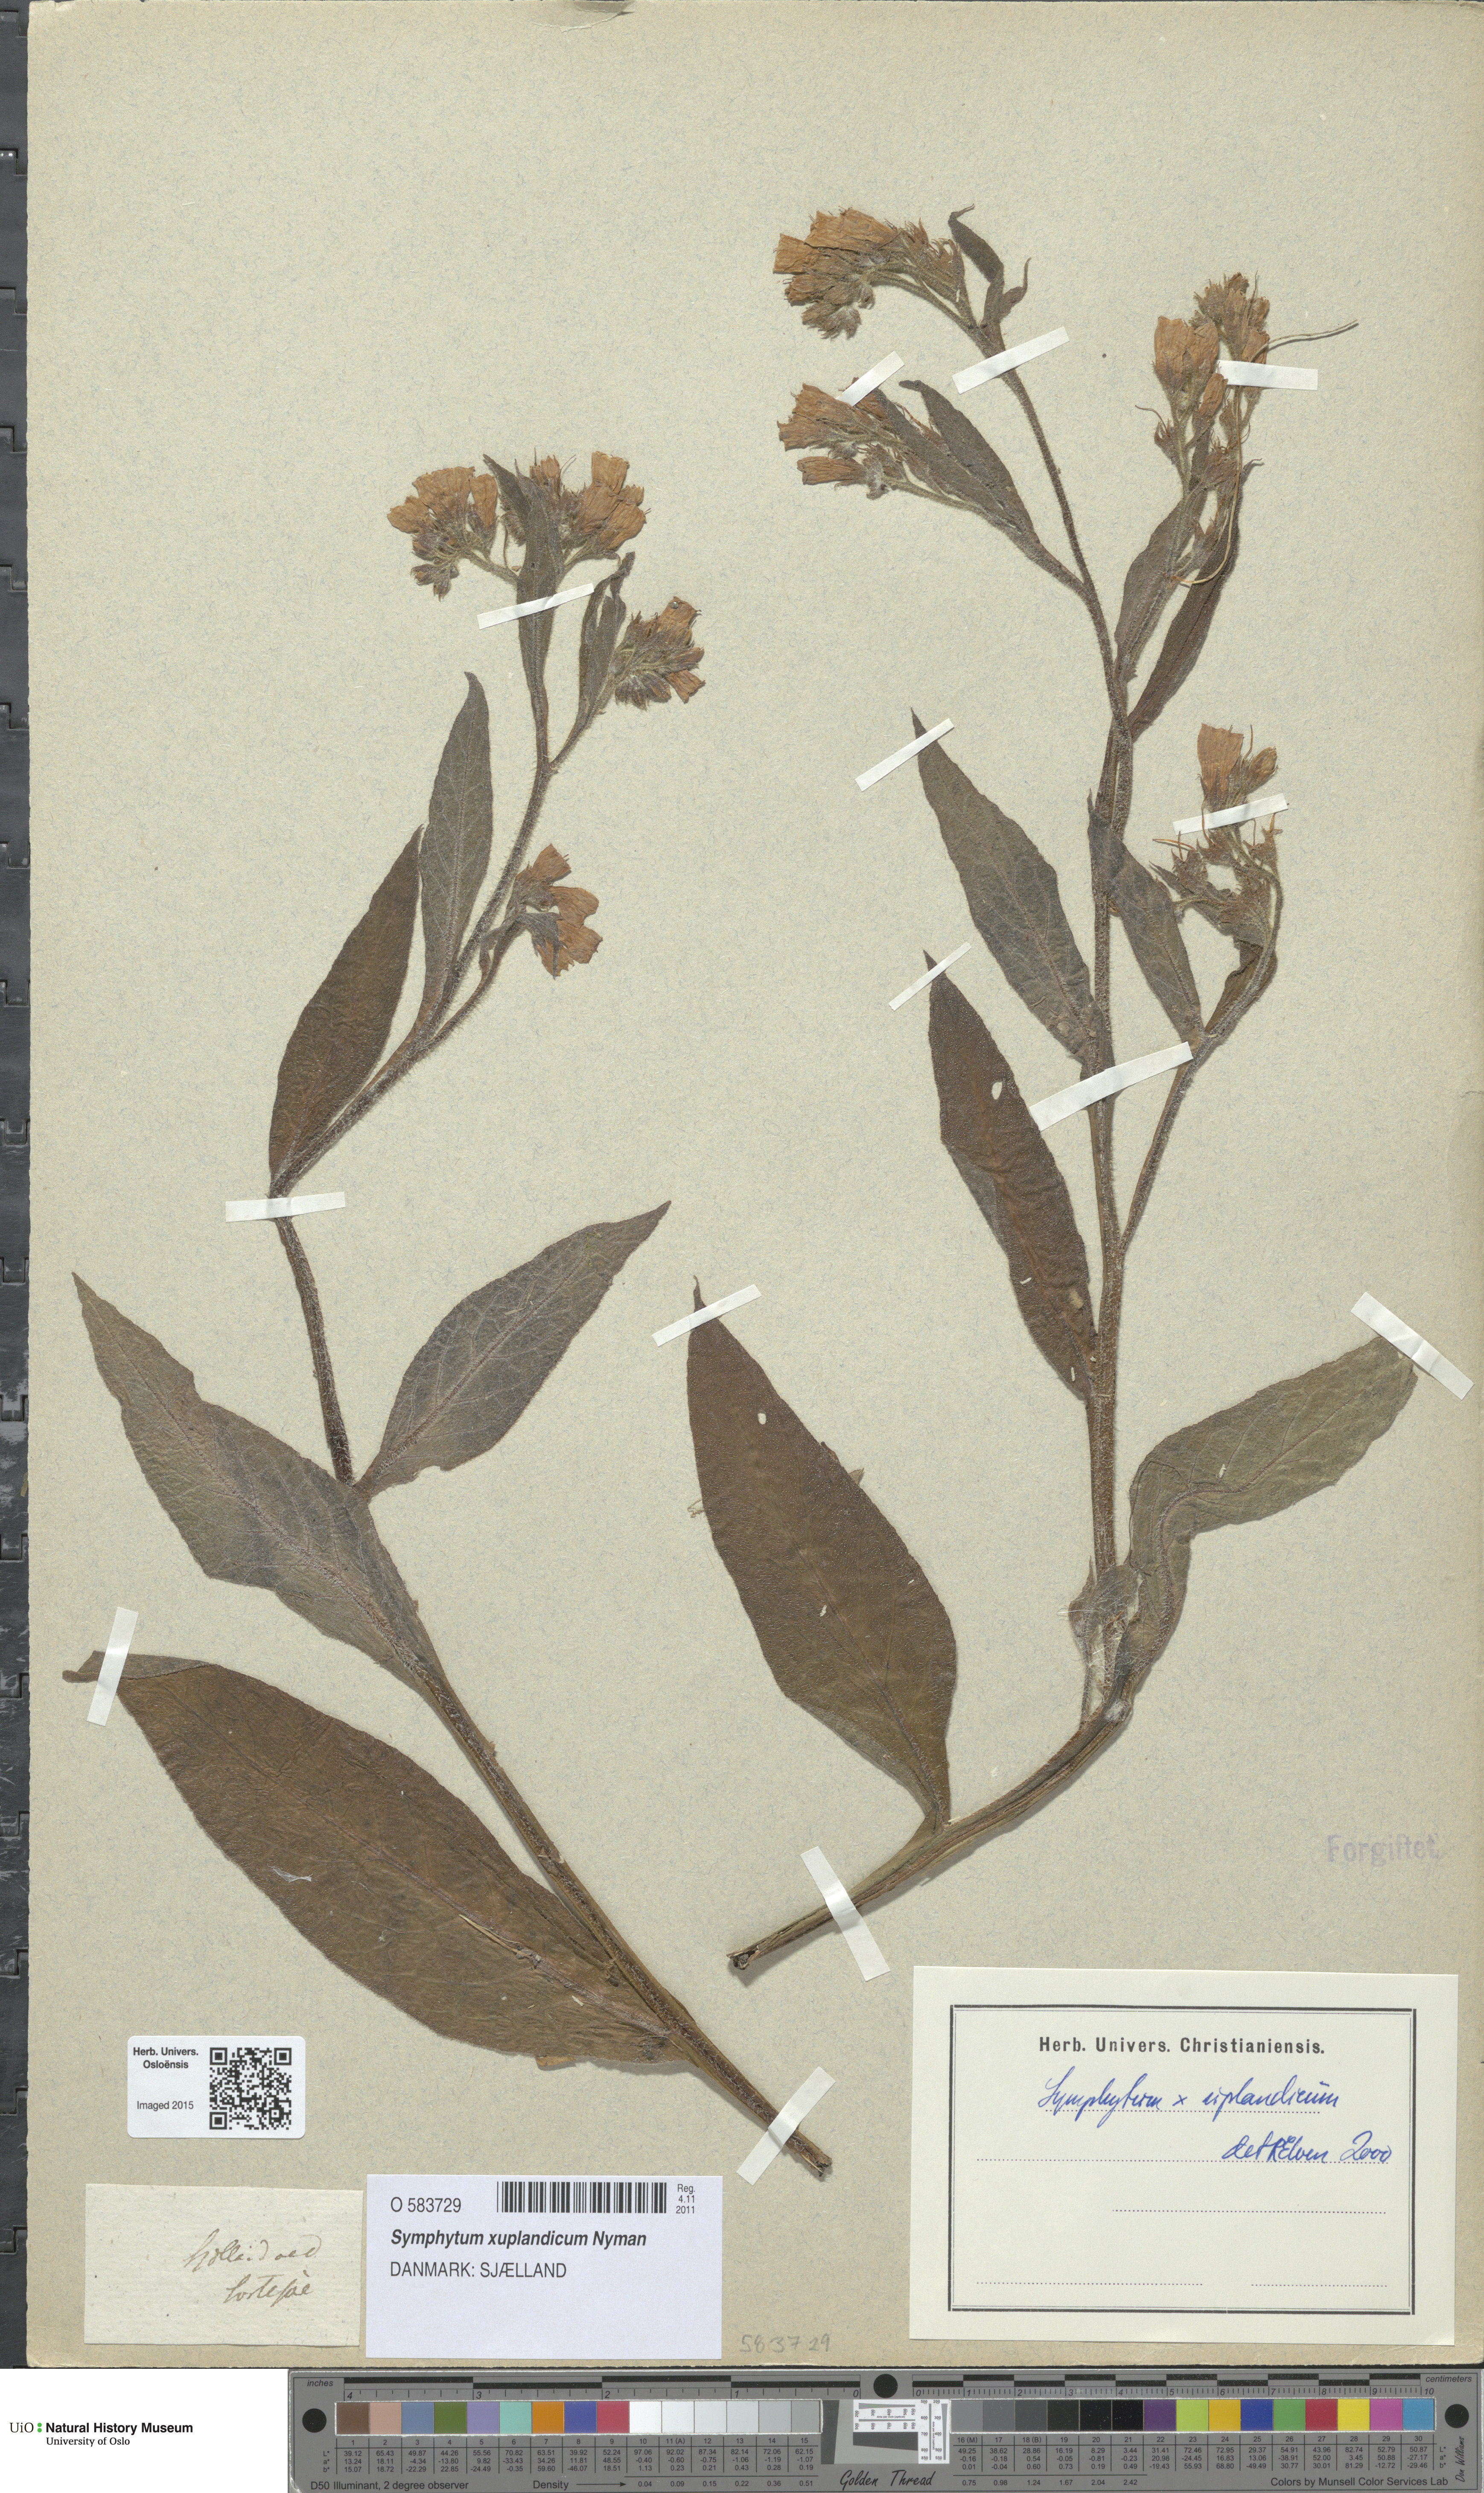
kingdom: Plantae
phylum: Tracheophyta
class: Magnoliopsida
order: Boraginales
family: Boraginaceae
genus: Symphytum
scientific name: Symphytum uplandicum
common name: Russian comfrey
